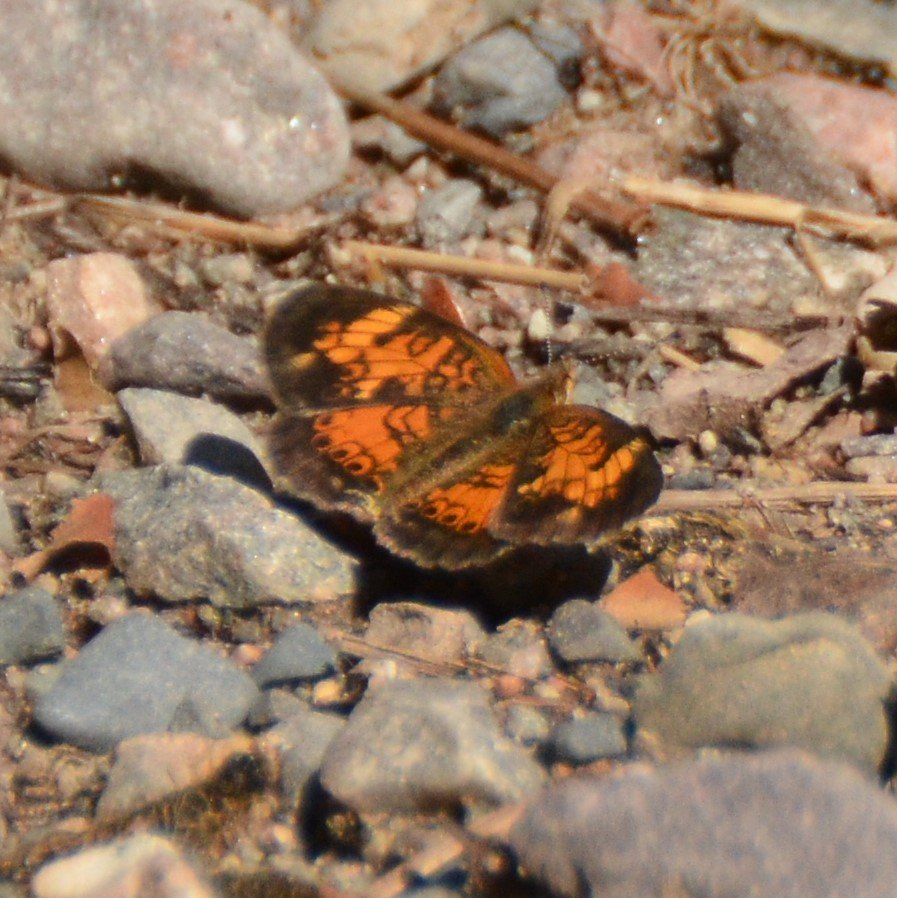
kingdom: Animalia
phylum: Arthropoda
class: Insecta
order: Lepidoptera
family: Nymphalidae
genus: Phyciodes
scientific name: Phyciodes tharos
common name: Northern Crescent
